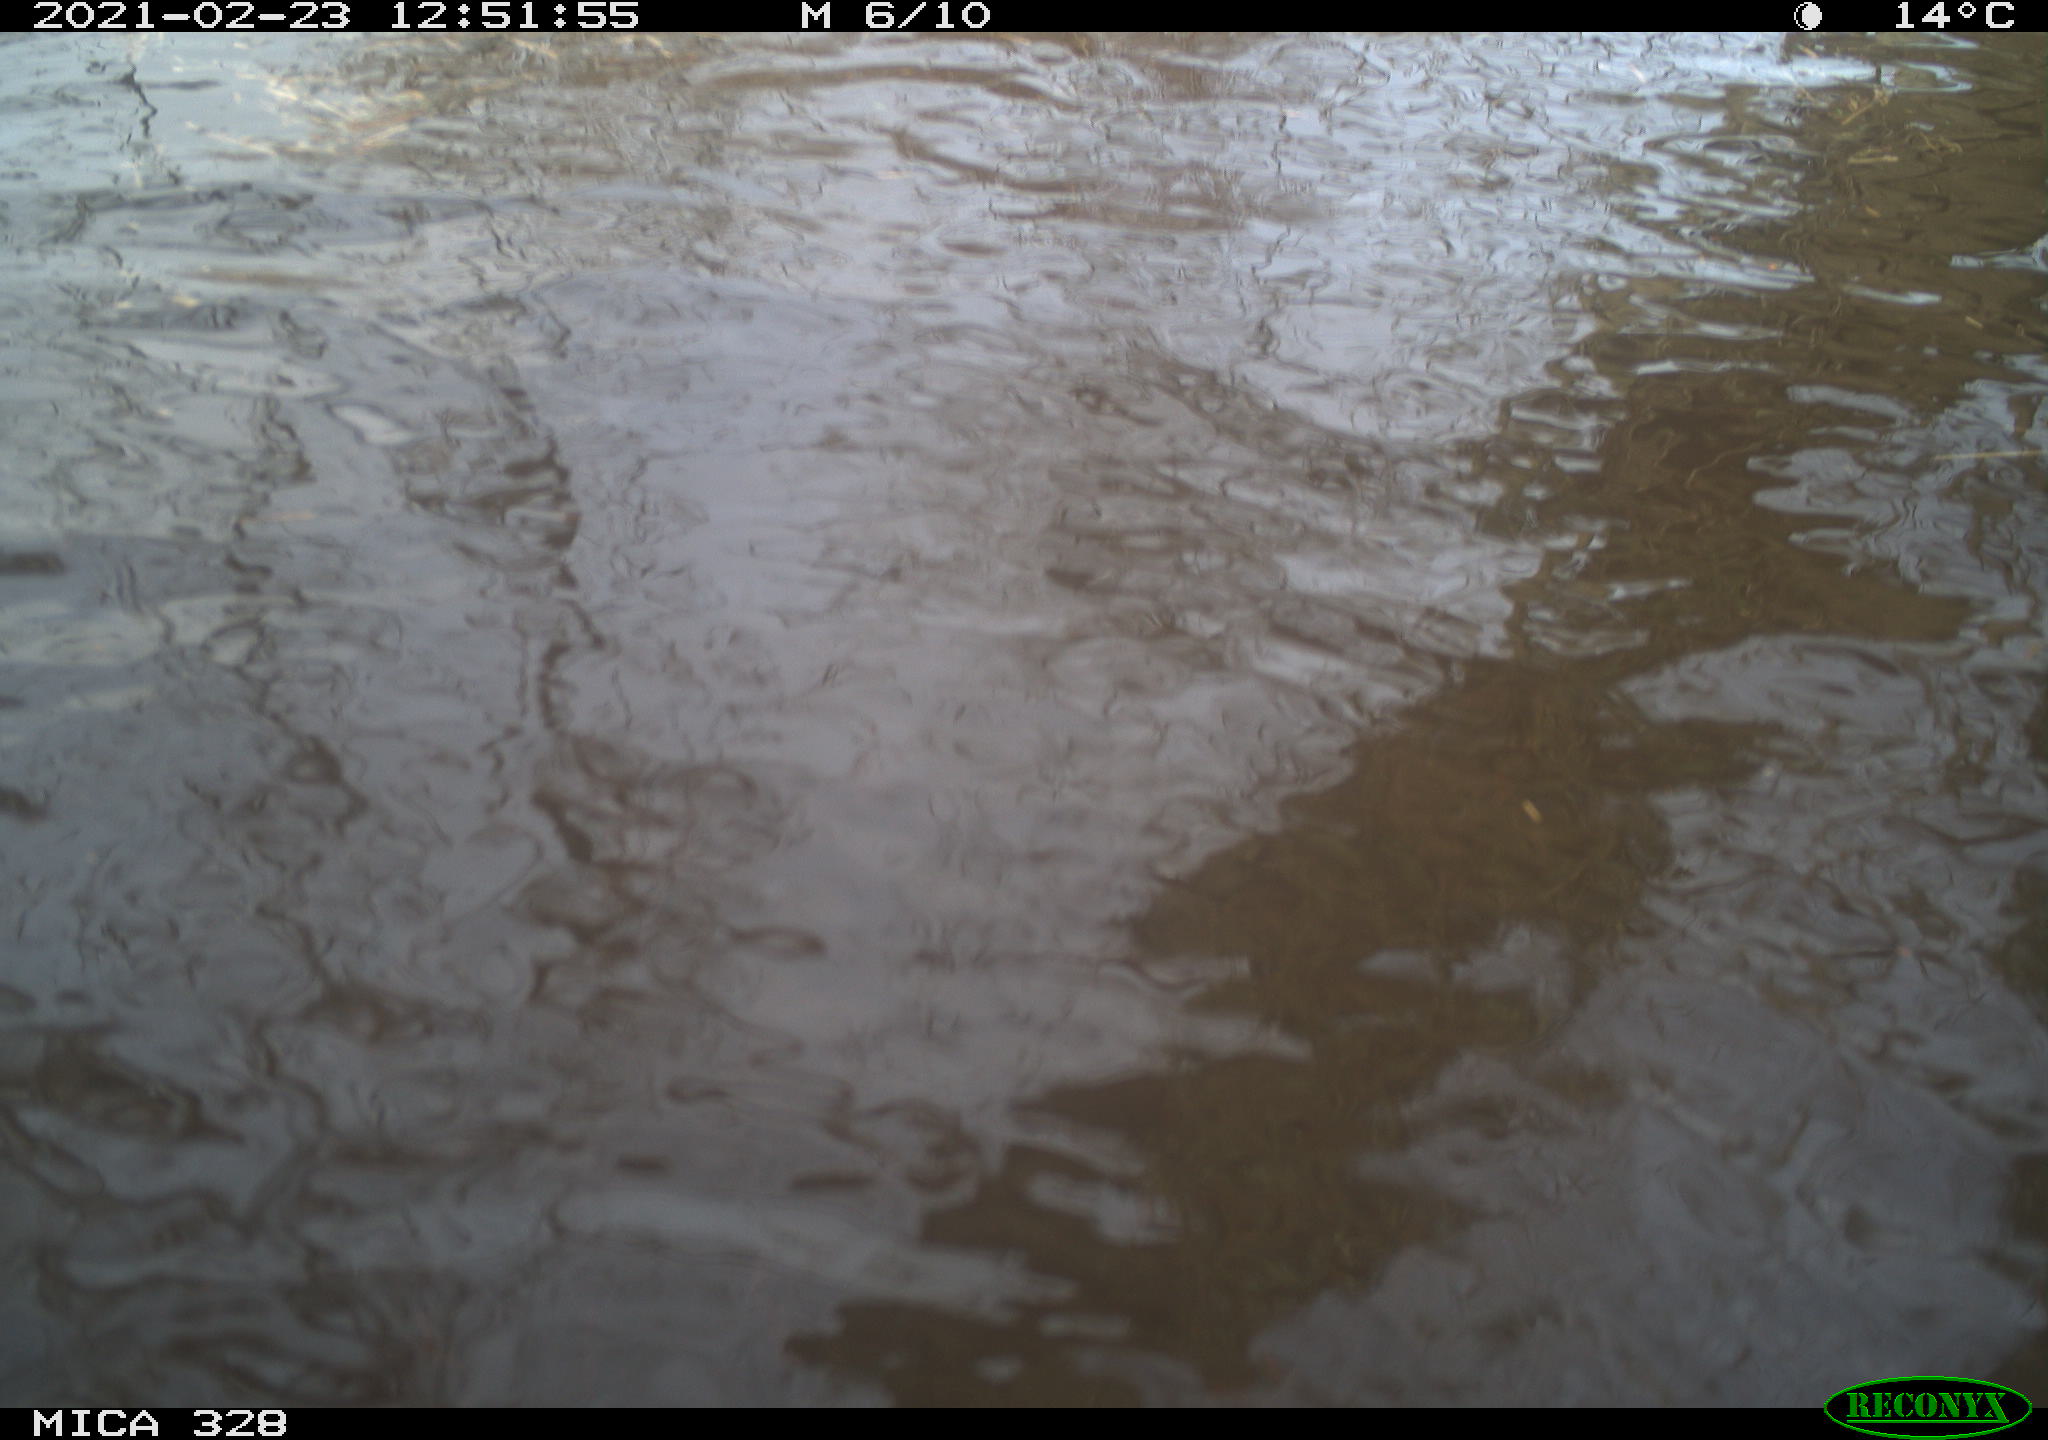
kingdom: Animalia
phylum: Chordata
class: Mammalia
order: Rodentia
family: Myocastoridae
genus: Myocastor
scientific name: Myocastor coypus
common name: Coypu
